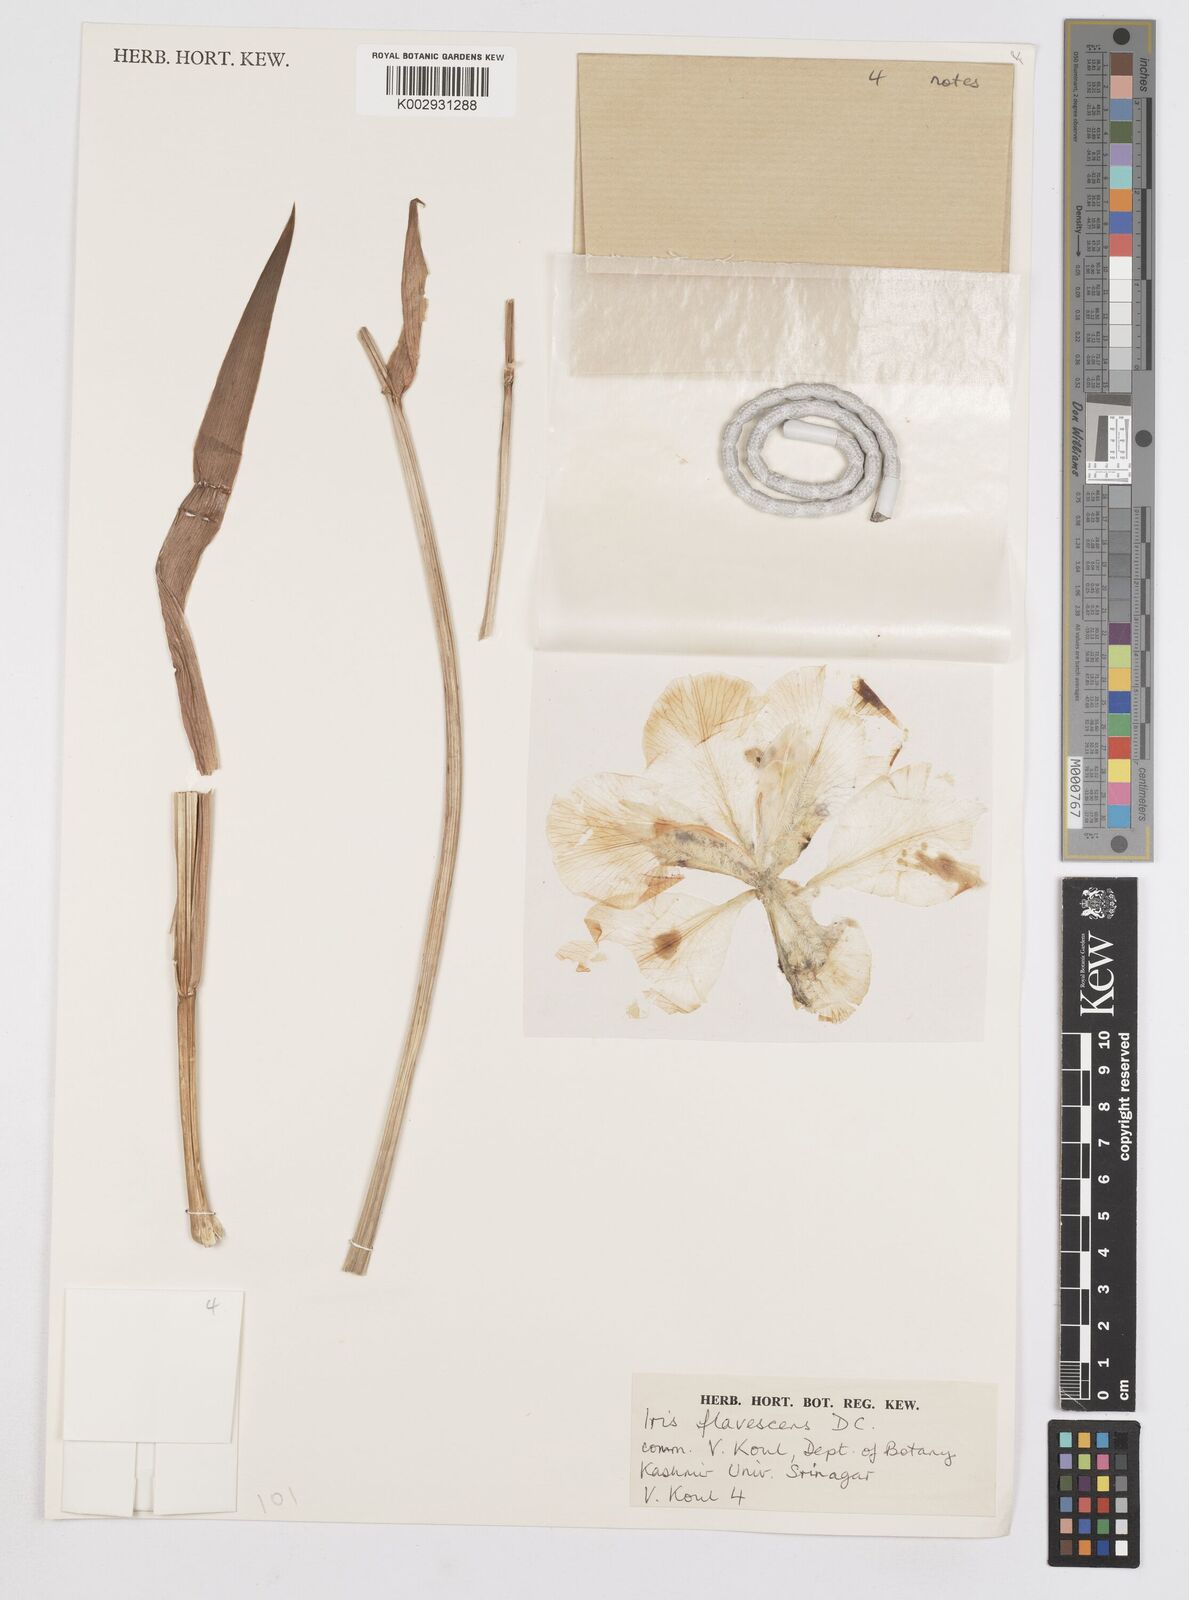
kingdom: Plantae
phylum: Tracheophyta
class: Liliopsida
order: Asparagales
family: Iridaceae
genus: Iris
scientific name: Iris variegata
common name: Hungarian iris
